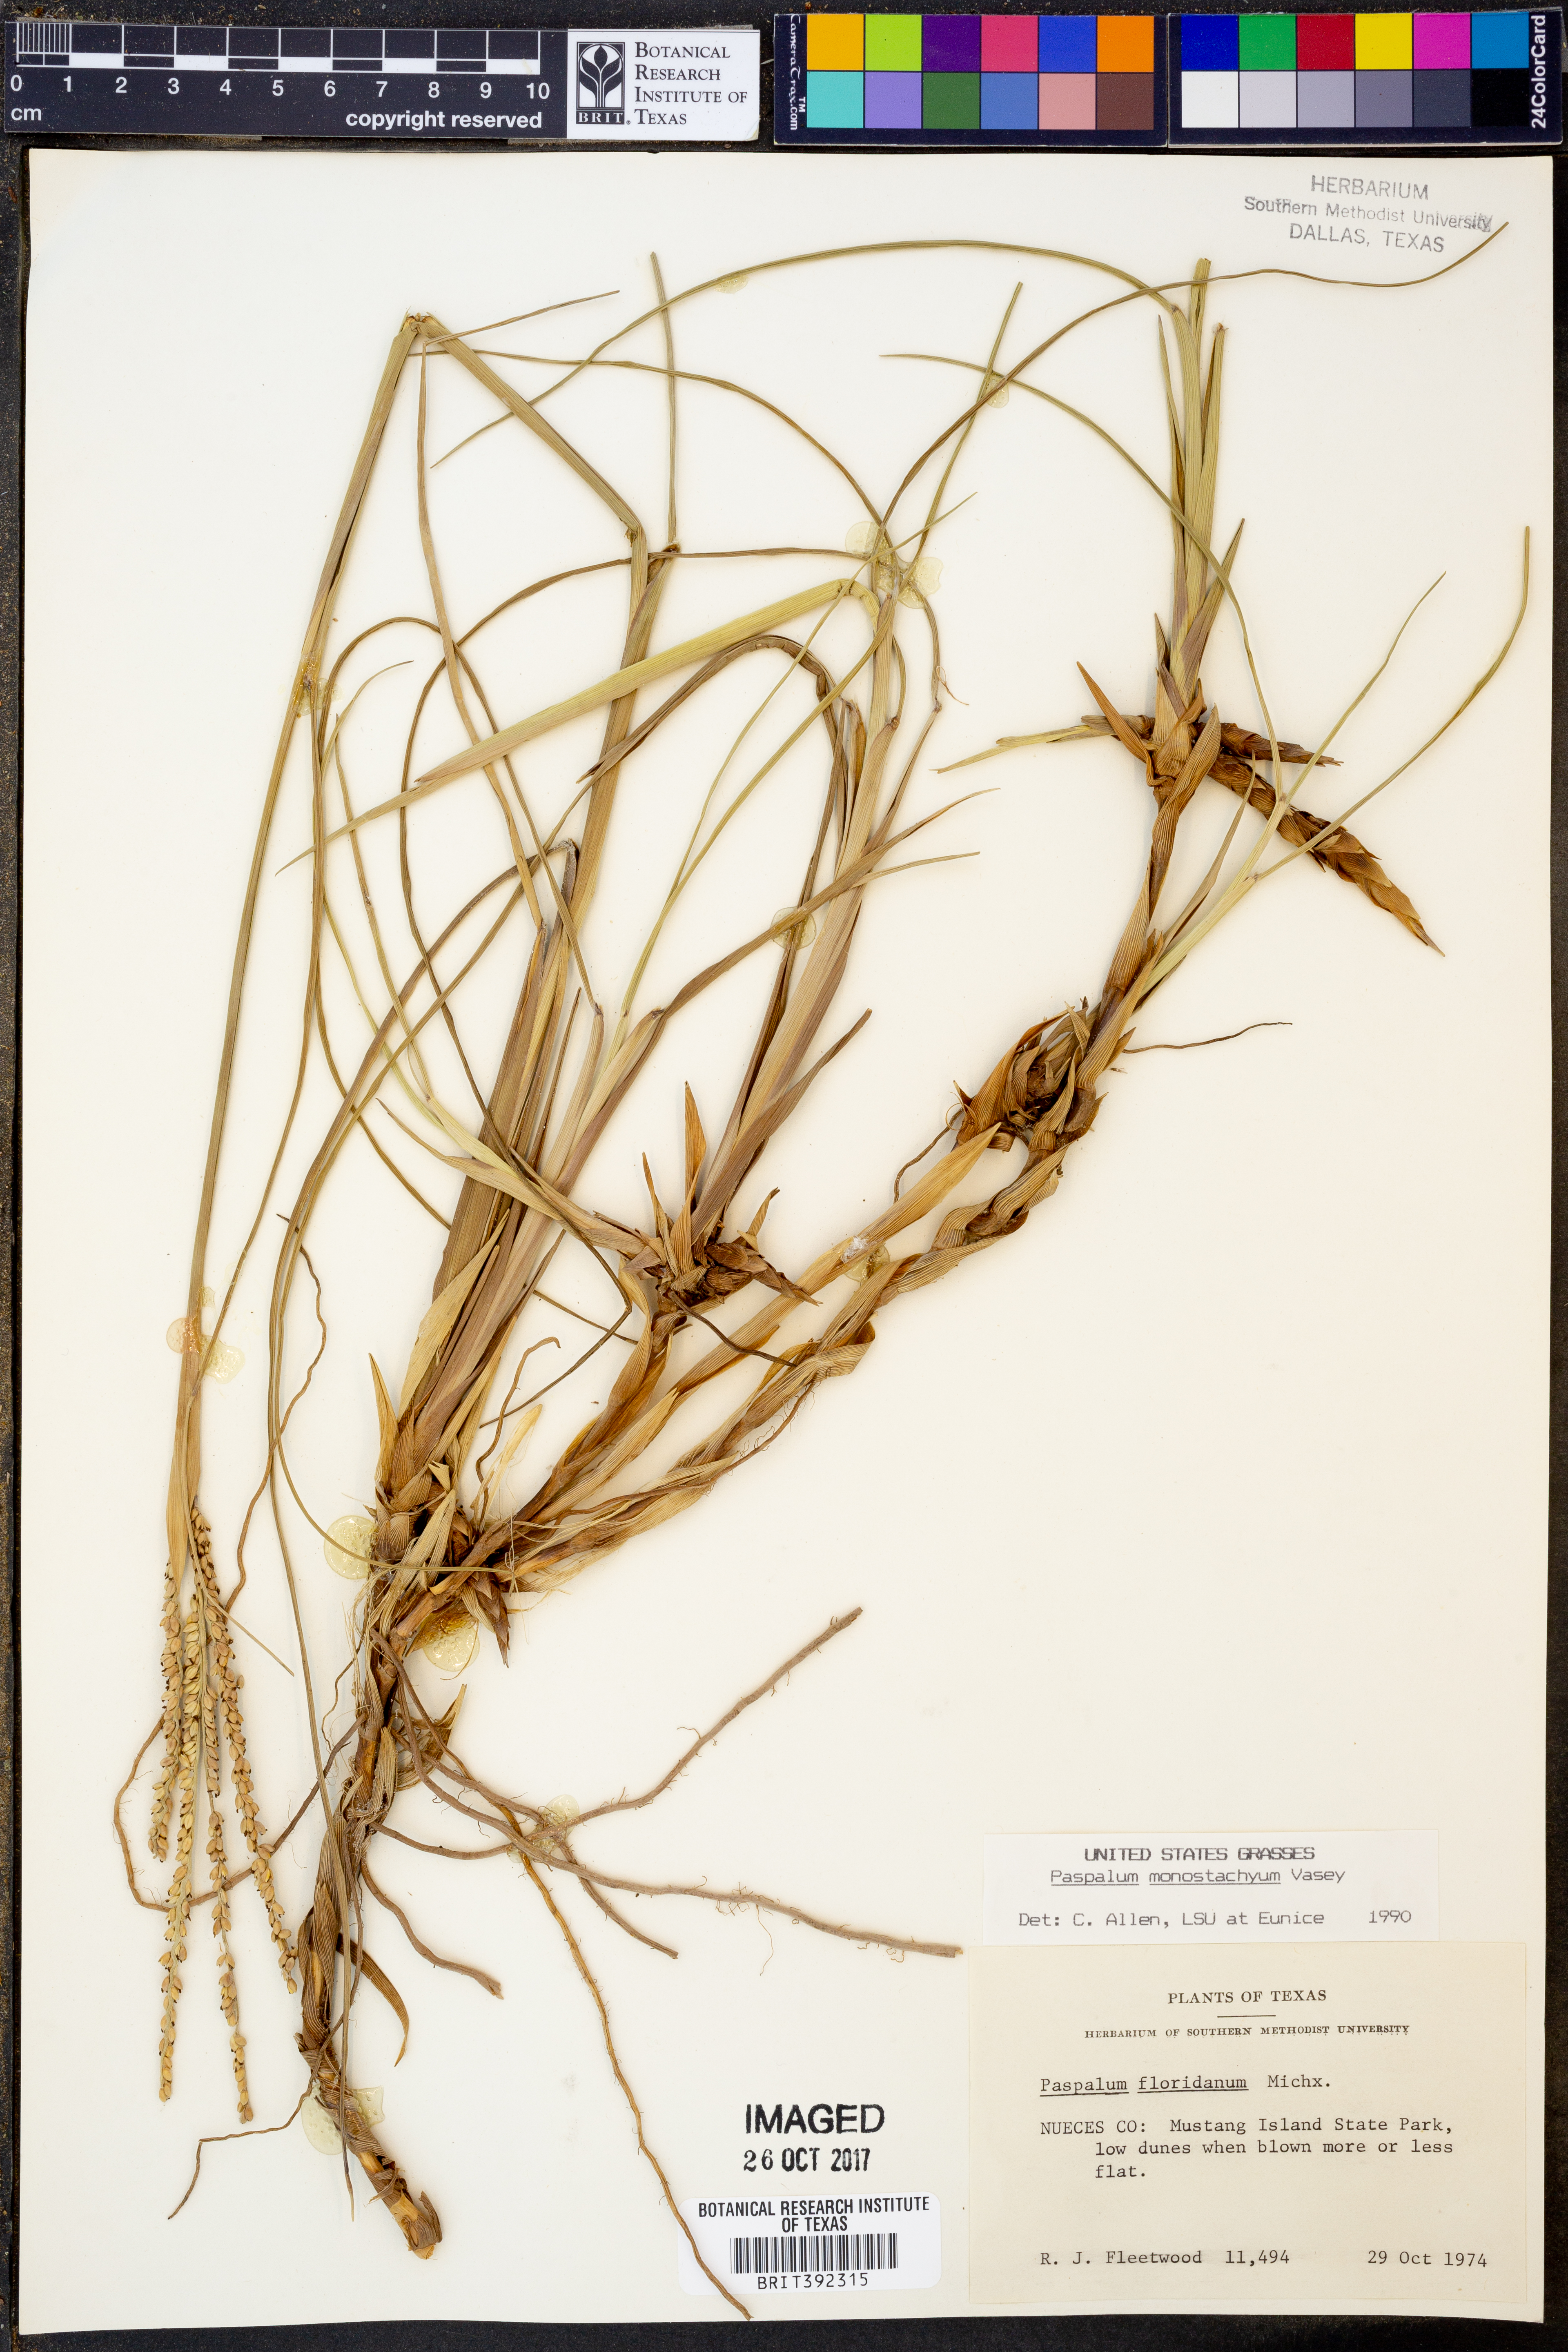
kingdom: Plantae
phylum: Tracheophyta
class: Liliopsida
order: Poales
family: Poaceae
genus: Paspalum
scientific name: Paspalum monostachyum
